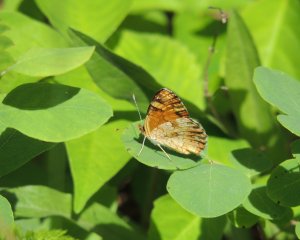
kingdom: Animalia
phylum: Arthropoda
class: Insecta
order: Lepidoptera
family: Nymphalidae
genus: Phyciodes
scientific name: Phyciodes tharos
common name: Northern Crescent
